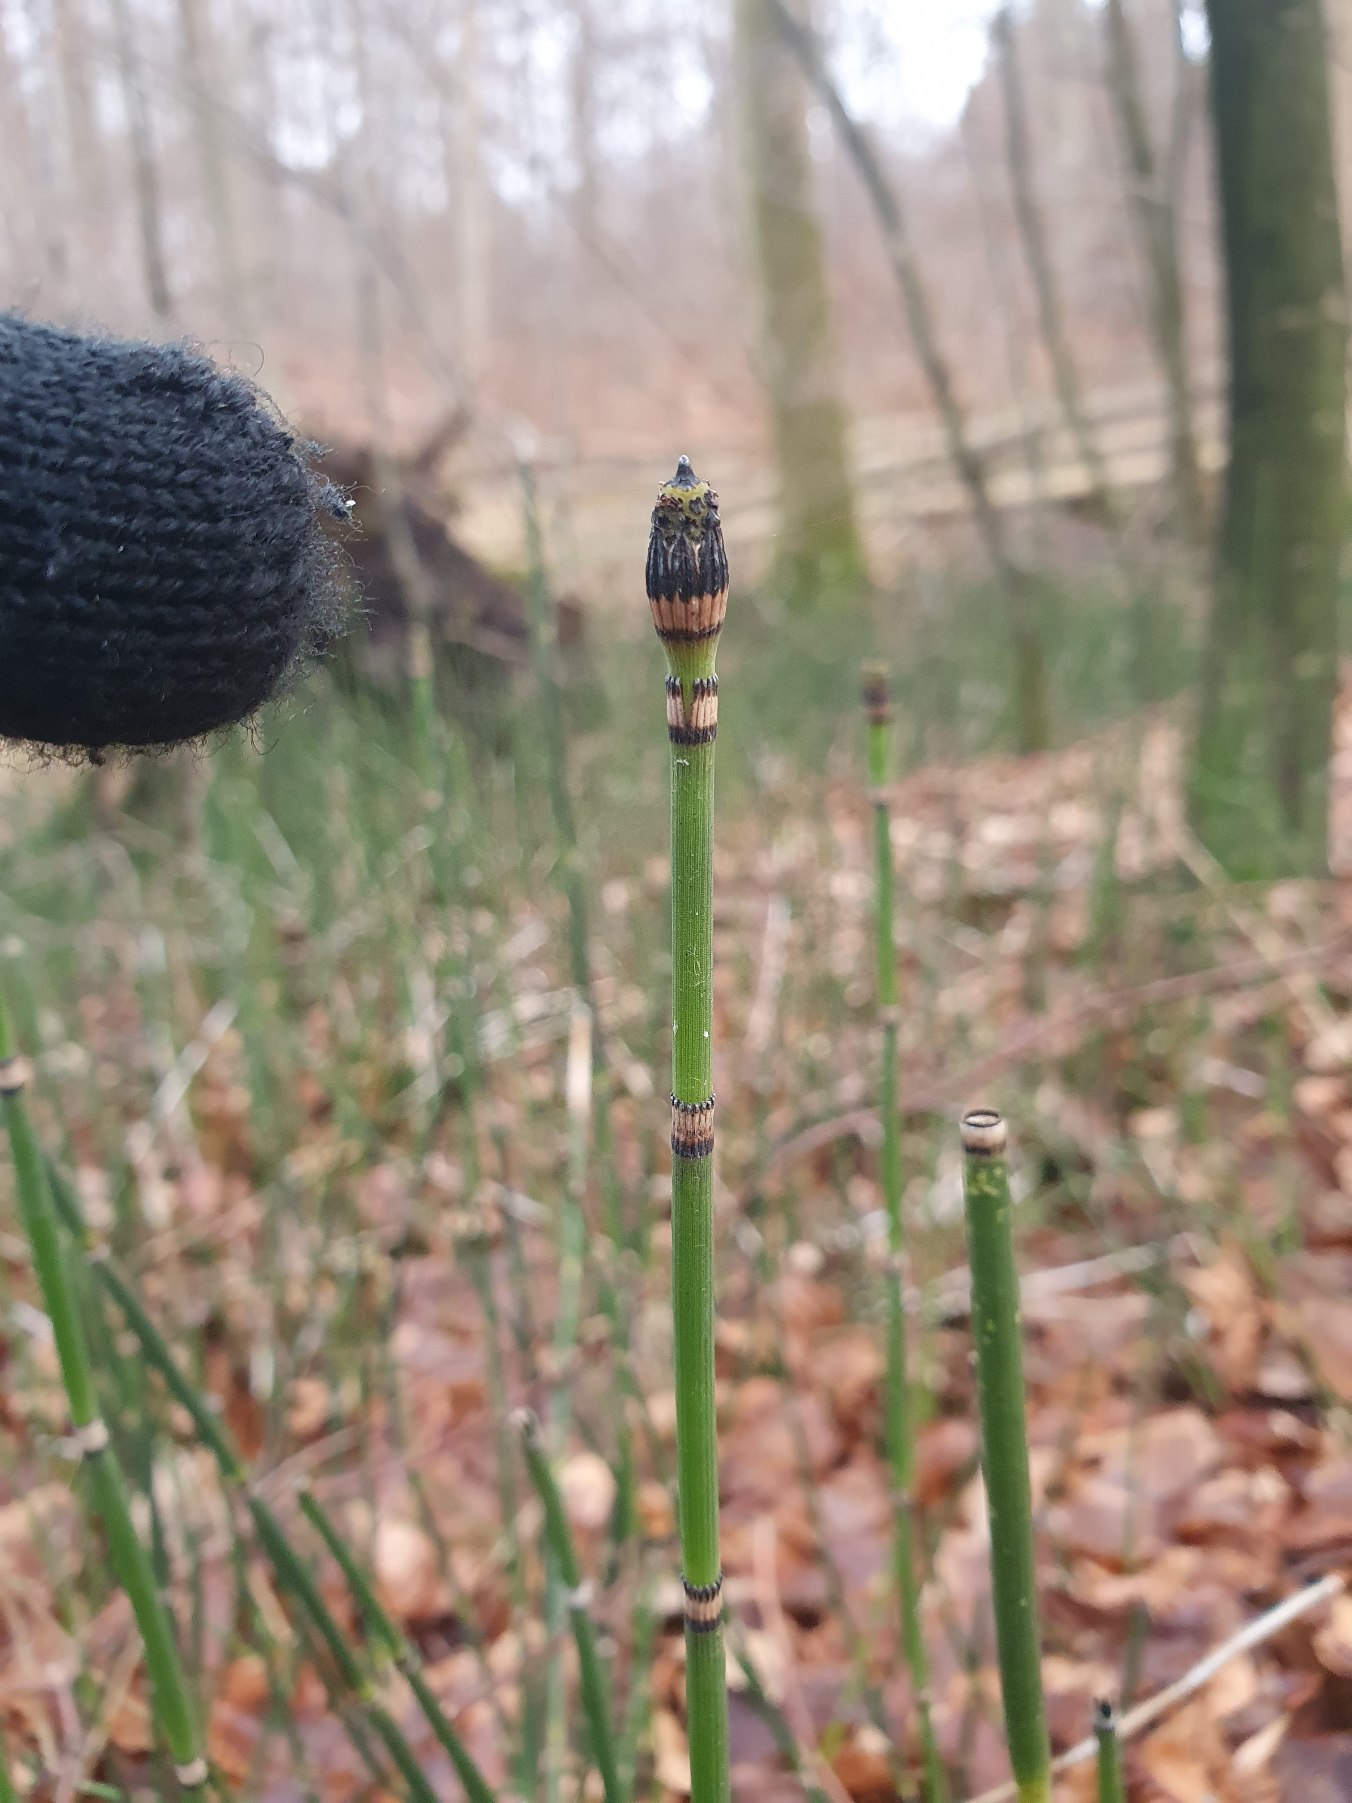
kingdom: Plantae
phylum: Tracheophyta
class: Polypodiopsida
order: Equisetales
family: Equisetaceae
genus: Equisetum
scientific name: Equisetum hyemale
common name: Skavgræs
